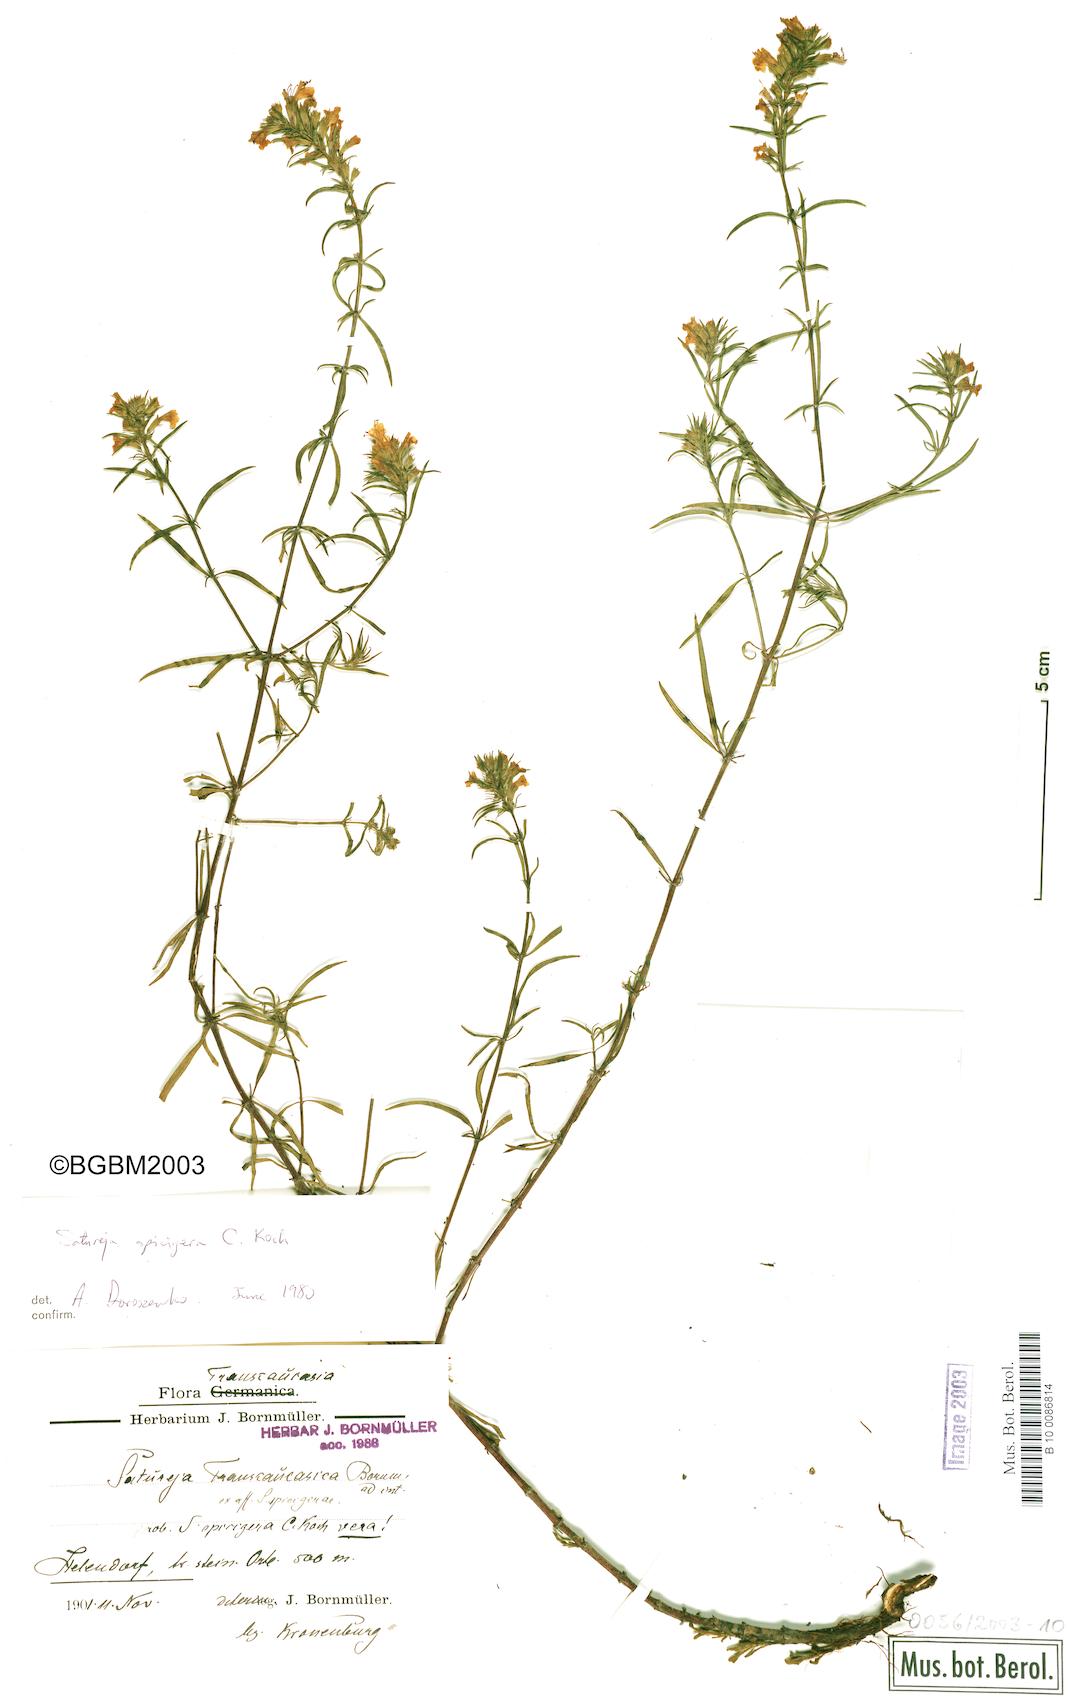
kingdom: Plantae
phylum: Tracheophyta
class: Magnoliopsida
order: Lamiales
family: Lamiaceae
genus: Satureja
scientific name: Satureja spicigera
